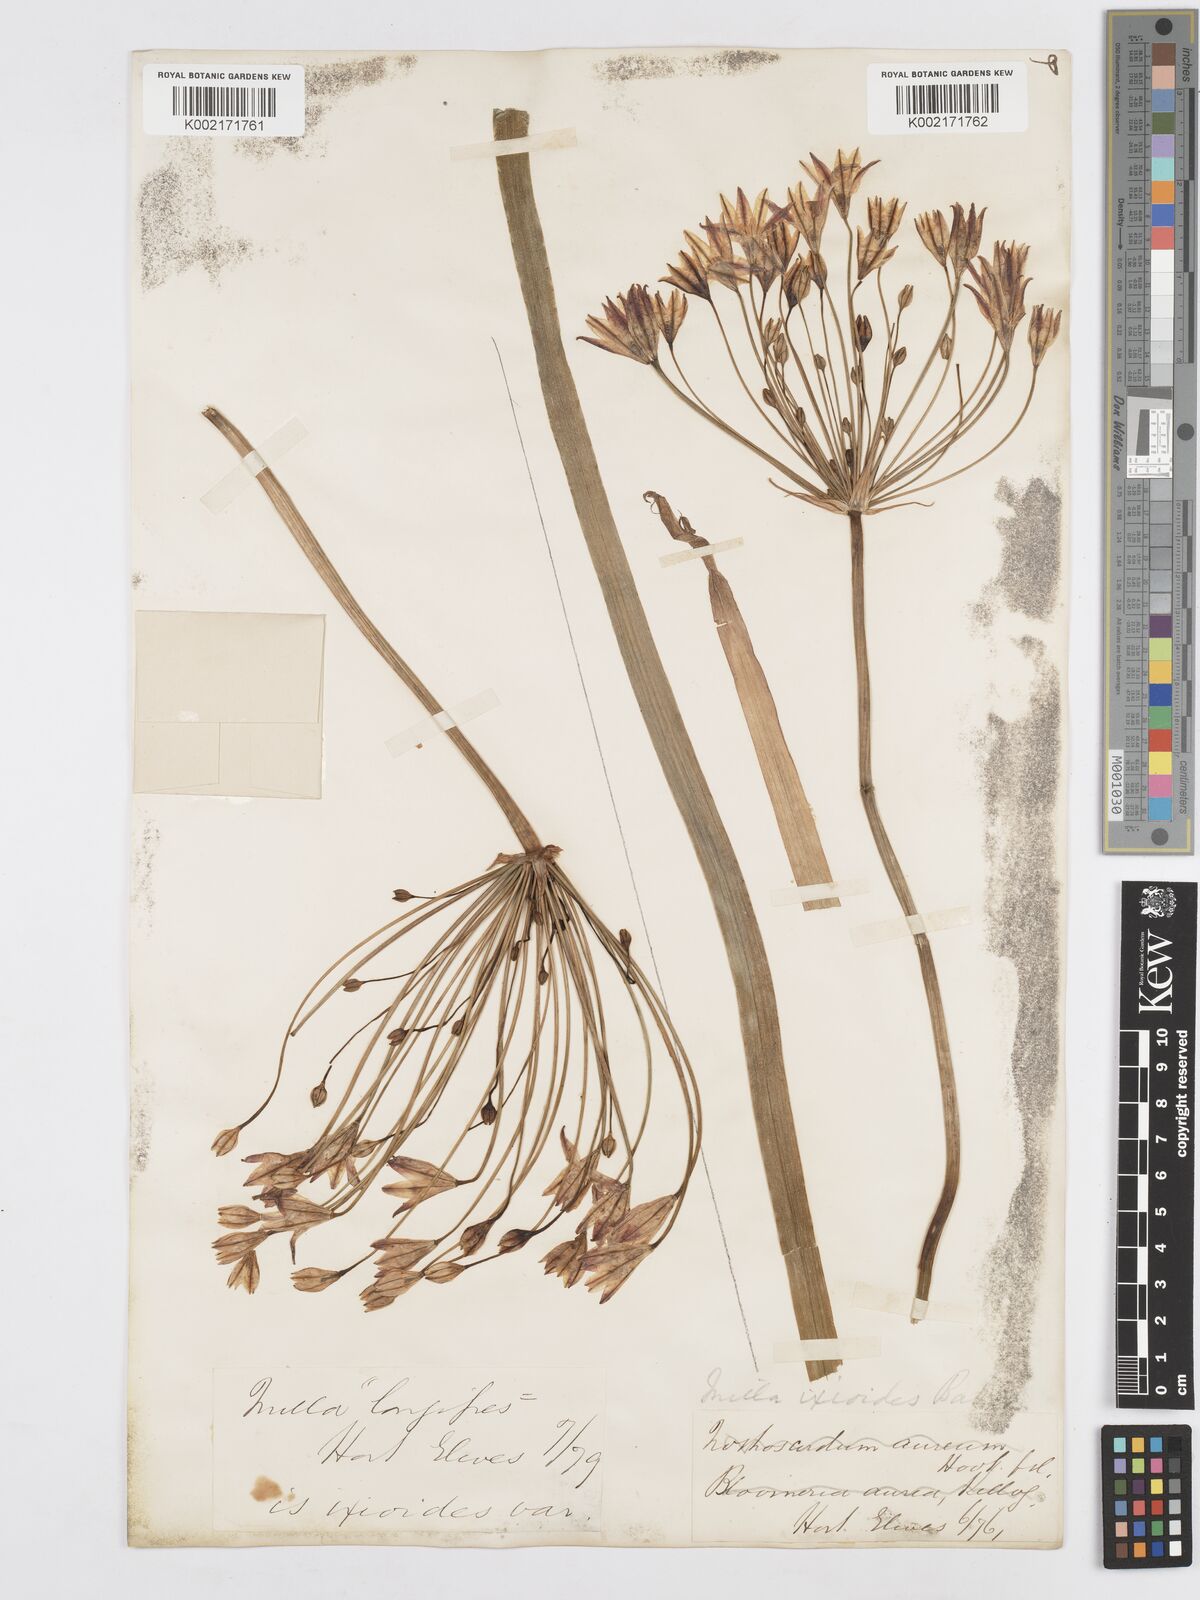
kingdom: Plantae
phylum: Tracheophyta
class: Liliopsida
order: Asparagales
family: Asparagaceae
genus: Triteleia
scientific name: Triteleia ixioides
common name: Yellow-brodiaea
